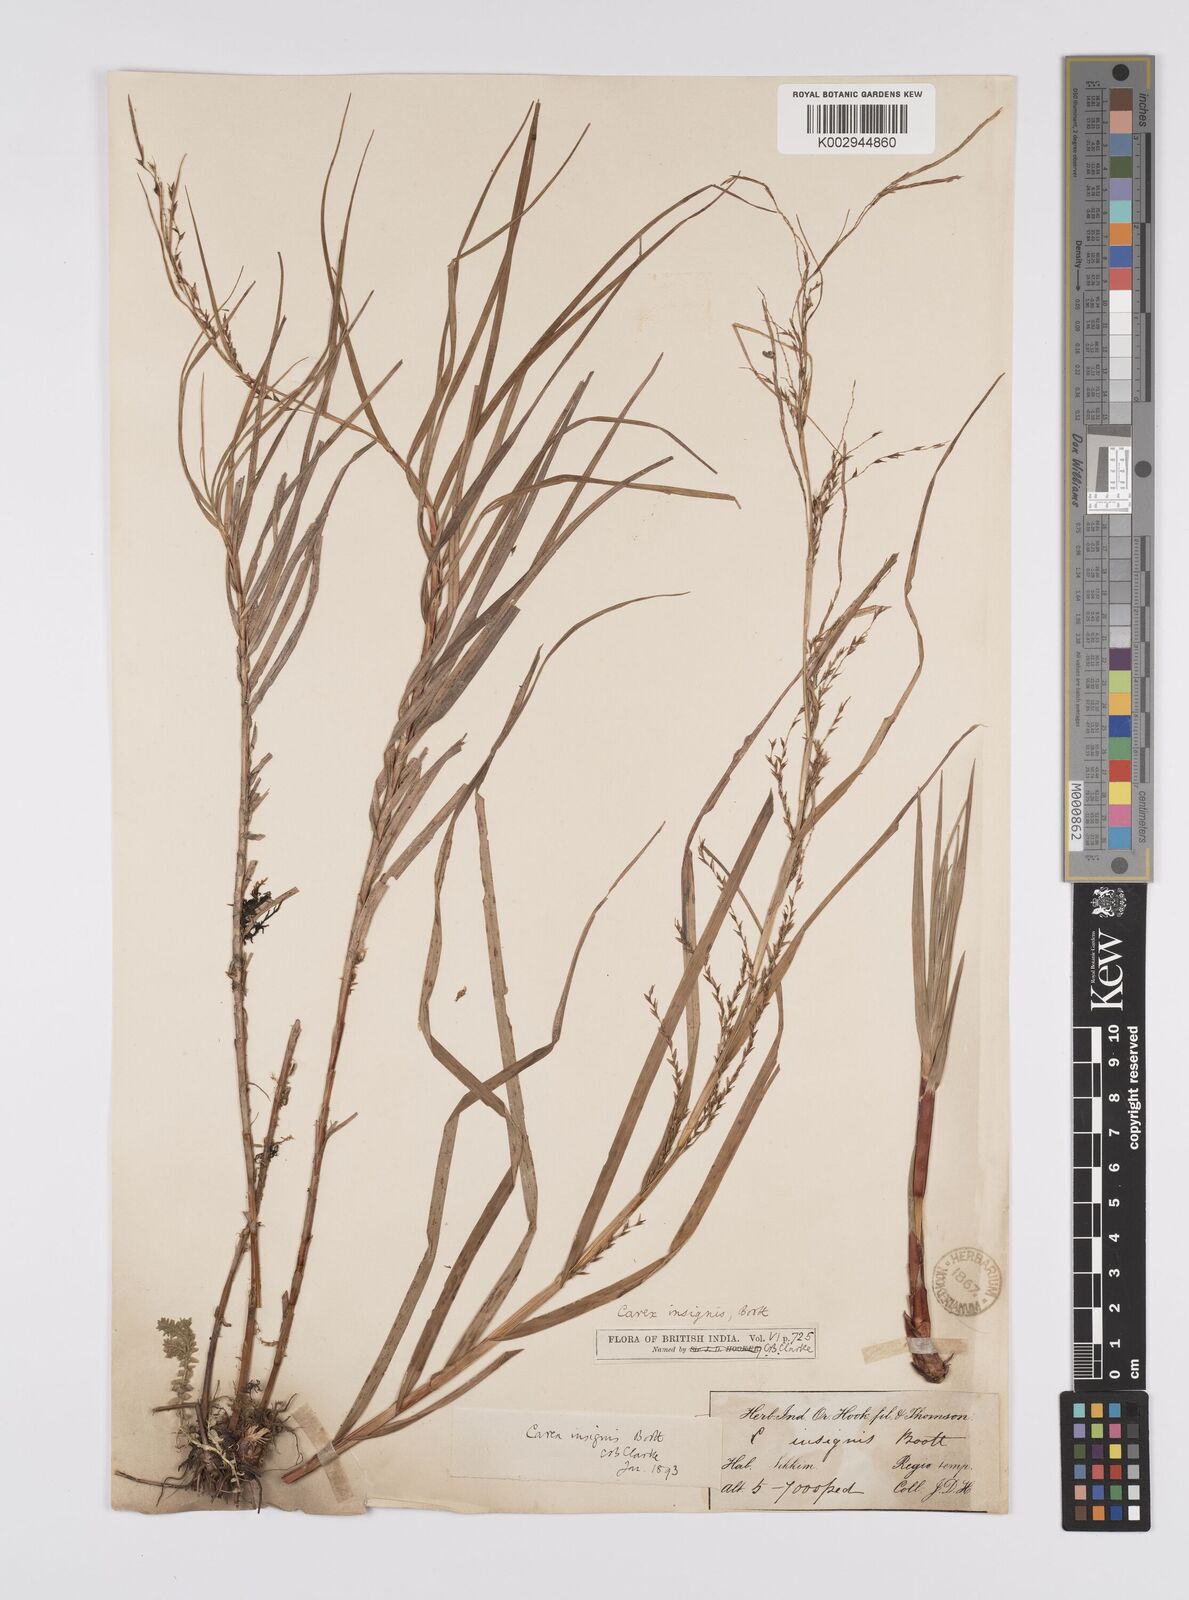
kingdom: Plantae
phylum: Tracheophyta
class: Liliopsida
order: Poales
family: Cyperaceae
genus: Carex
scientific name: Carex insignis
